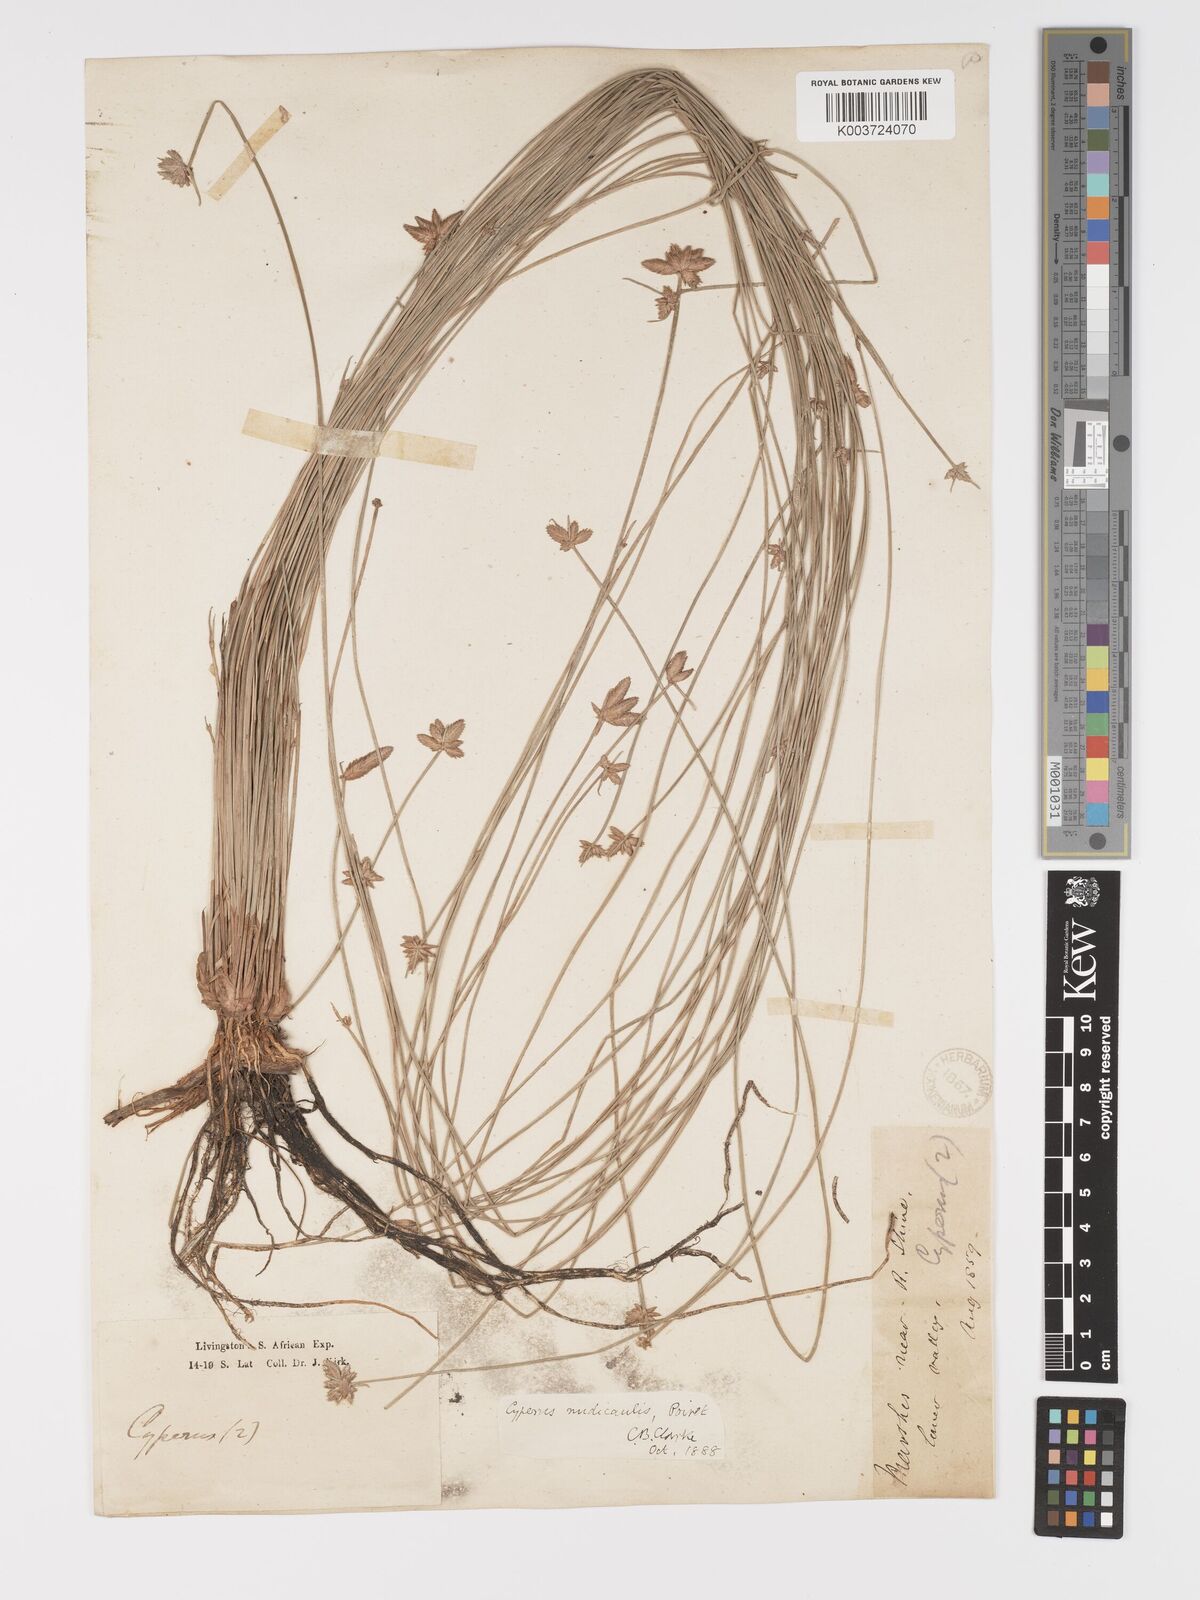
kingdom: Plantae
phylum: Tracheophyta
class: Liliopsida
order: Poales
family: Cyperaceae
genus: Cyperus
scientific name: Cyperus compressus
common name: Poorland flatsedge
